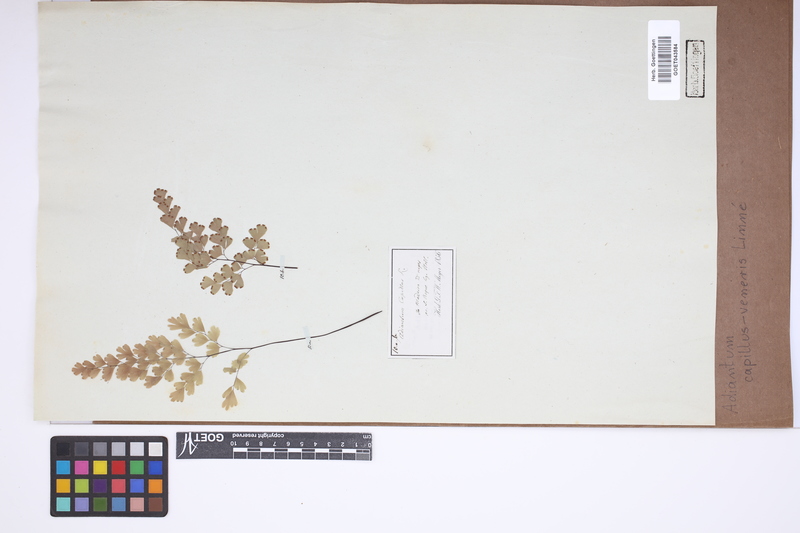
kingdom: Plantae
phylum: Tracheophyta
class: Polypodiopsida
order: Polypodiales
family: Pteridaceae
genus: Adiantum
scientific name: Adiantum capillus-veneris
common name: Maidenhair fern
